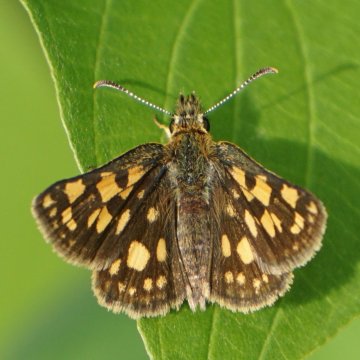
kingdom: Animalia
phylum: Arthropoda
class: Insecta
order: Lepidoptera
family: Hesperiidae
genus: Carterocephalus
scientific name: Carterocephalus mandan
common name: Arctic Skipperling
